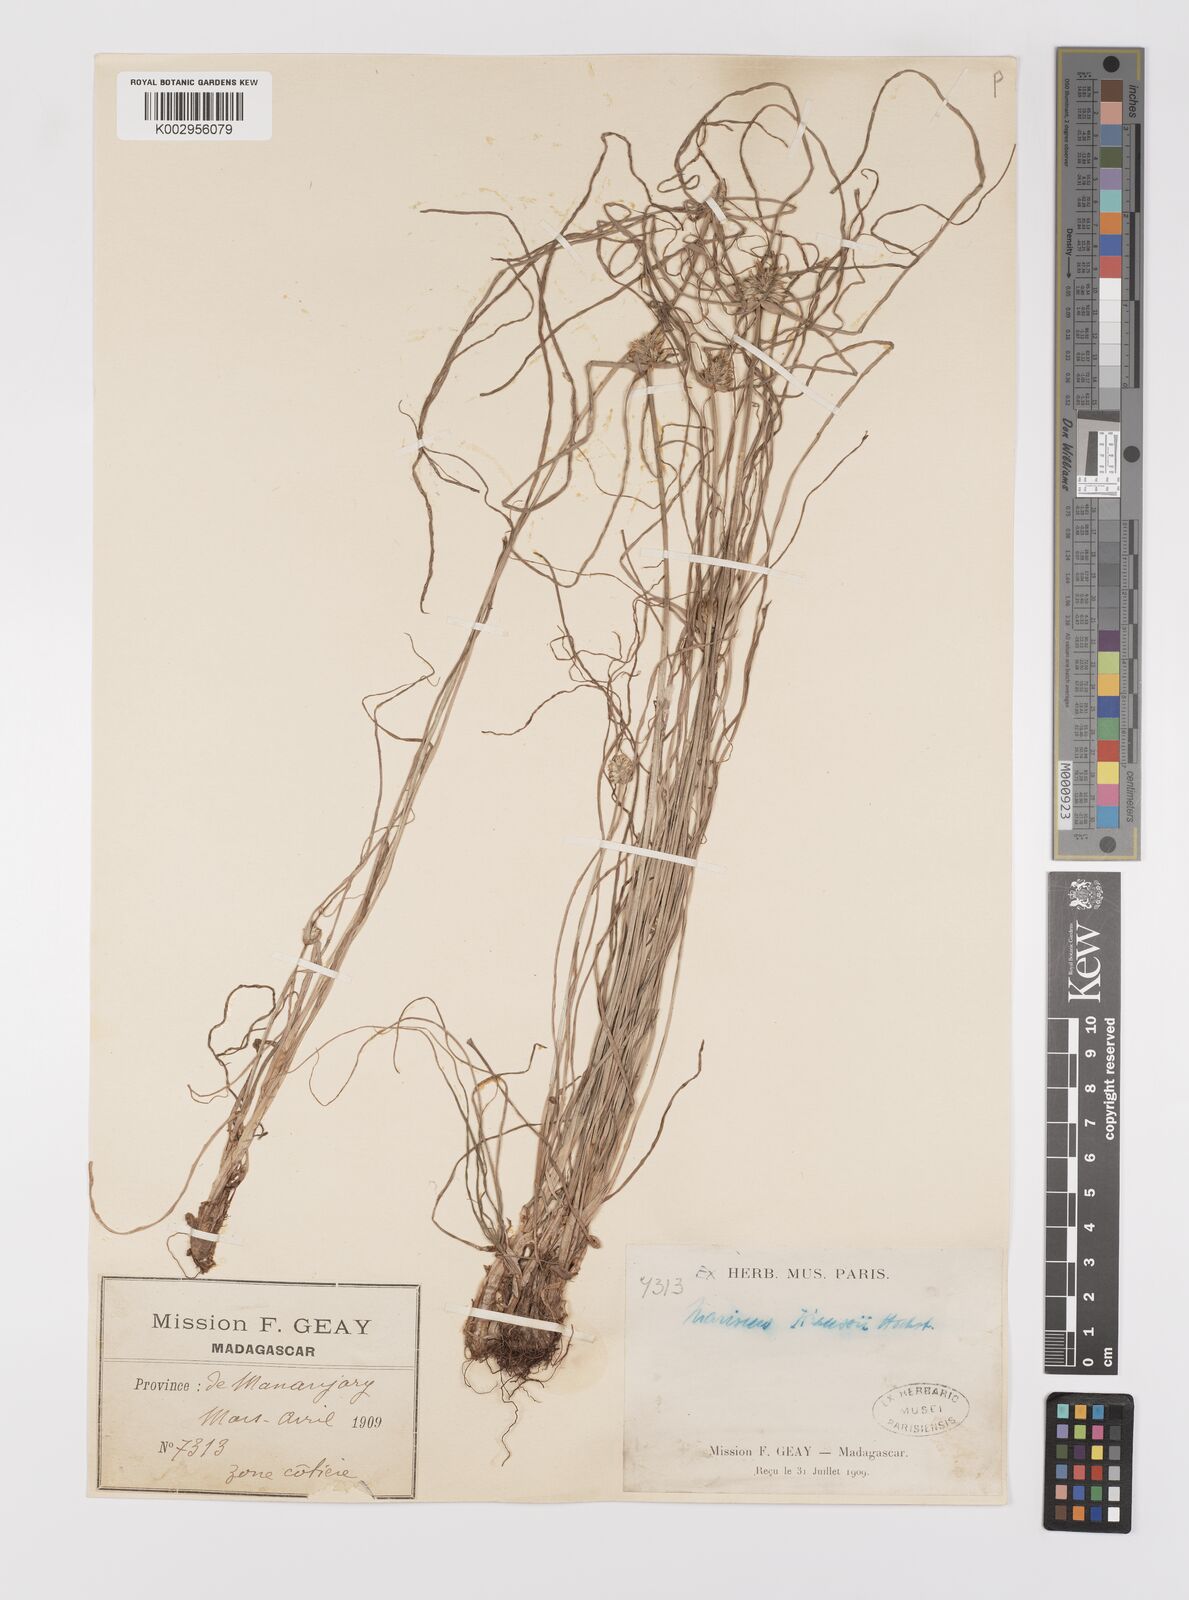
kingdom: Plantae
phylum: Tracheophyta
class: Liliopsida
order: Poales
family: Cyperaceae
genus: Cyperus
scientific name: Cyperus dubius
